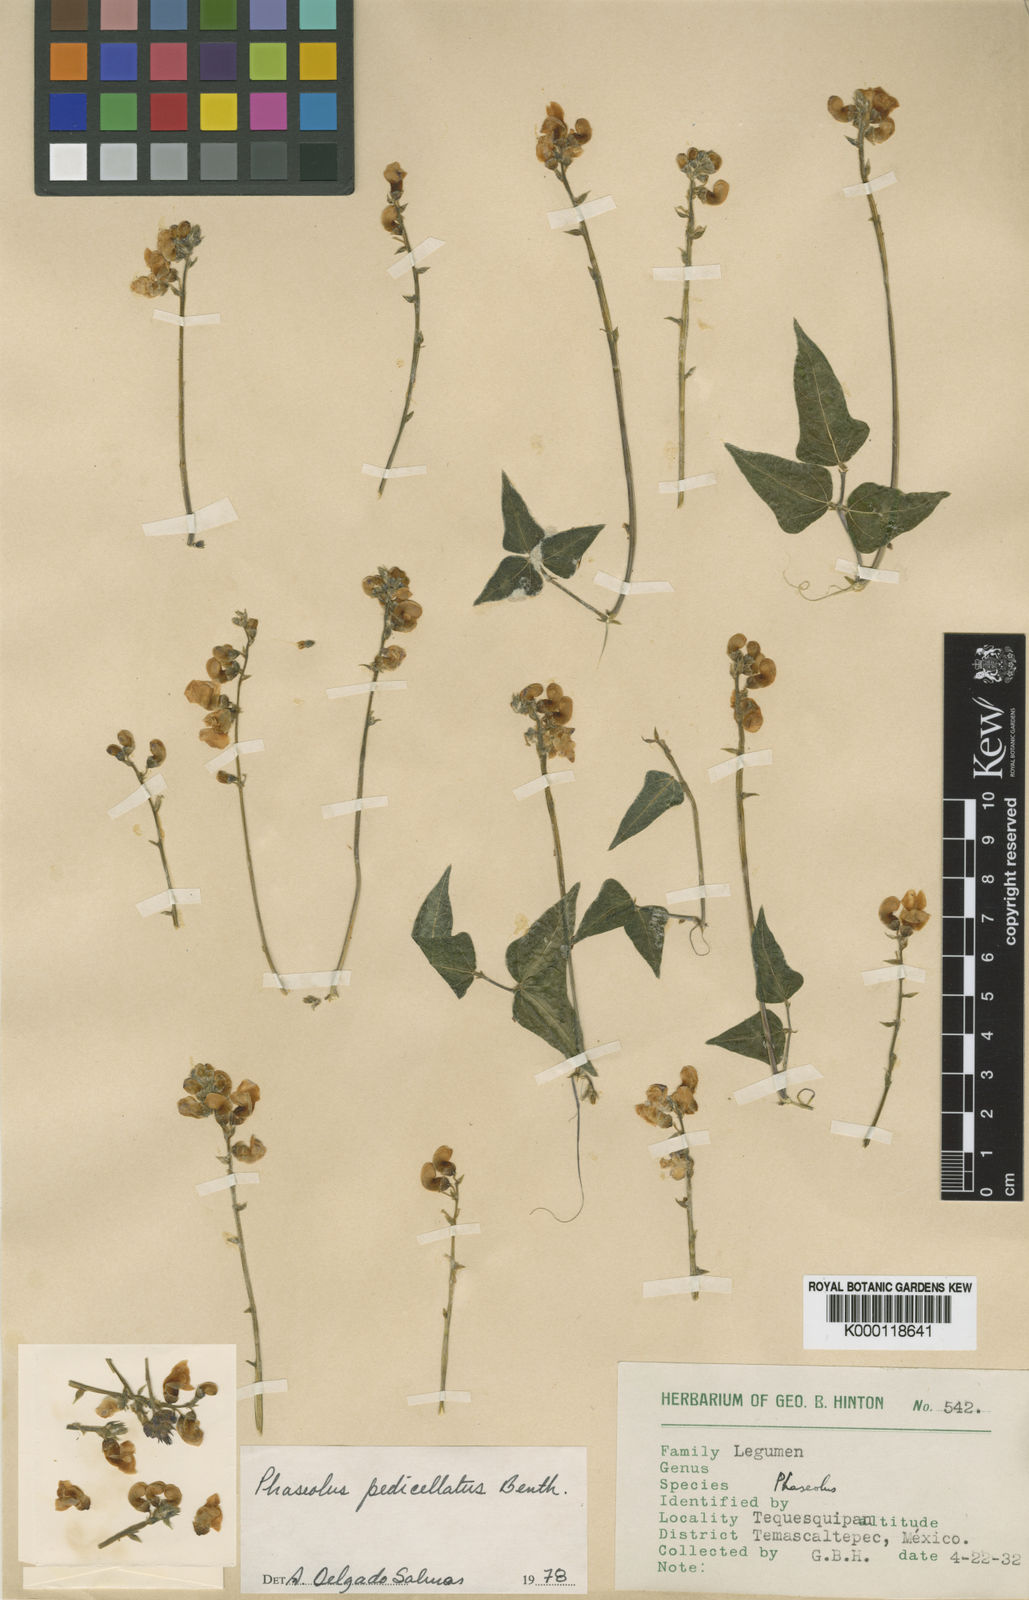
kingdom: Plantae
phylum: Tracheophyta
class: Magnoliopsida
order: Fabales
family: Fabaceae
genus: Phaseolus
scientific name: Phaseolus pedicellatus
